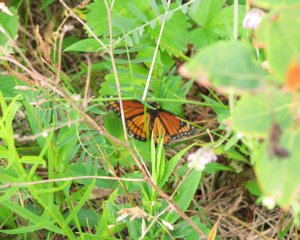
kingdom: Animalia
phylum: Arthropoda
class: Insecta
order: Lepidoptera
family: Nymphalidae
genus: Limenitis
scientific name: Limenitis archippus
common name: Viceroy
